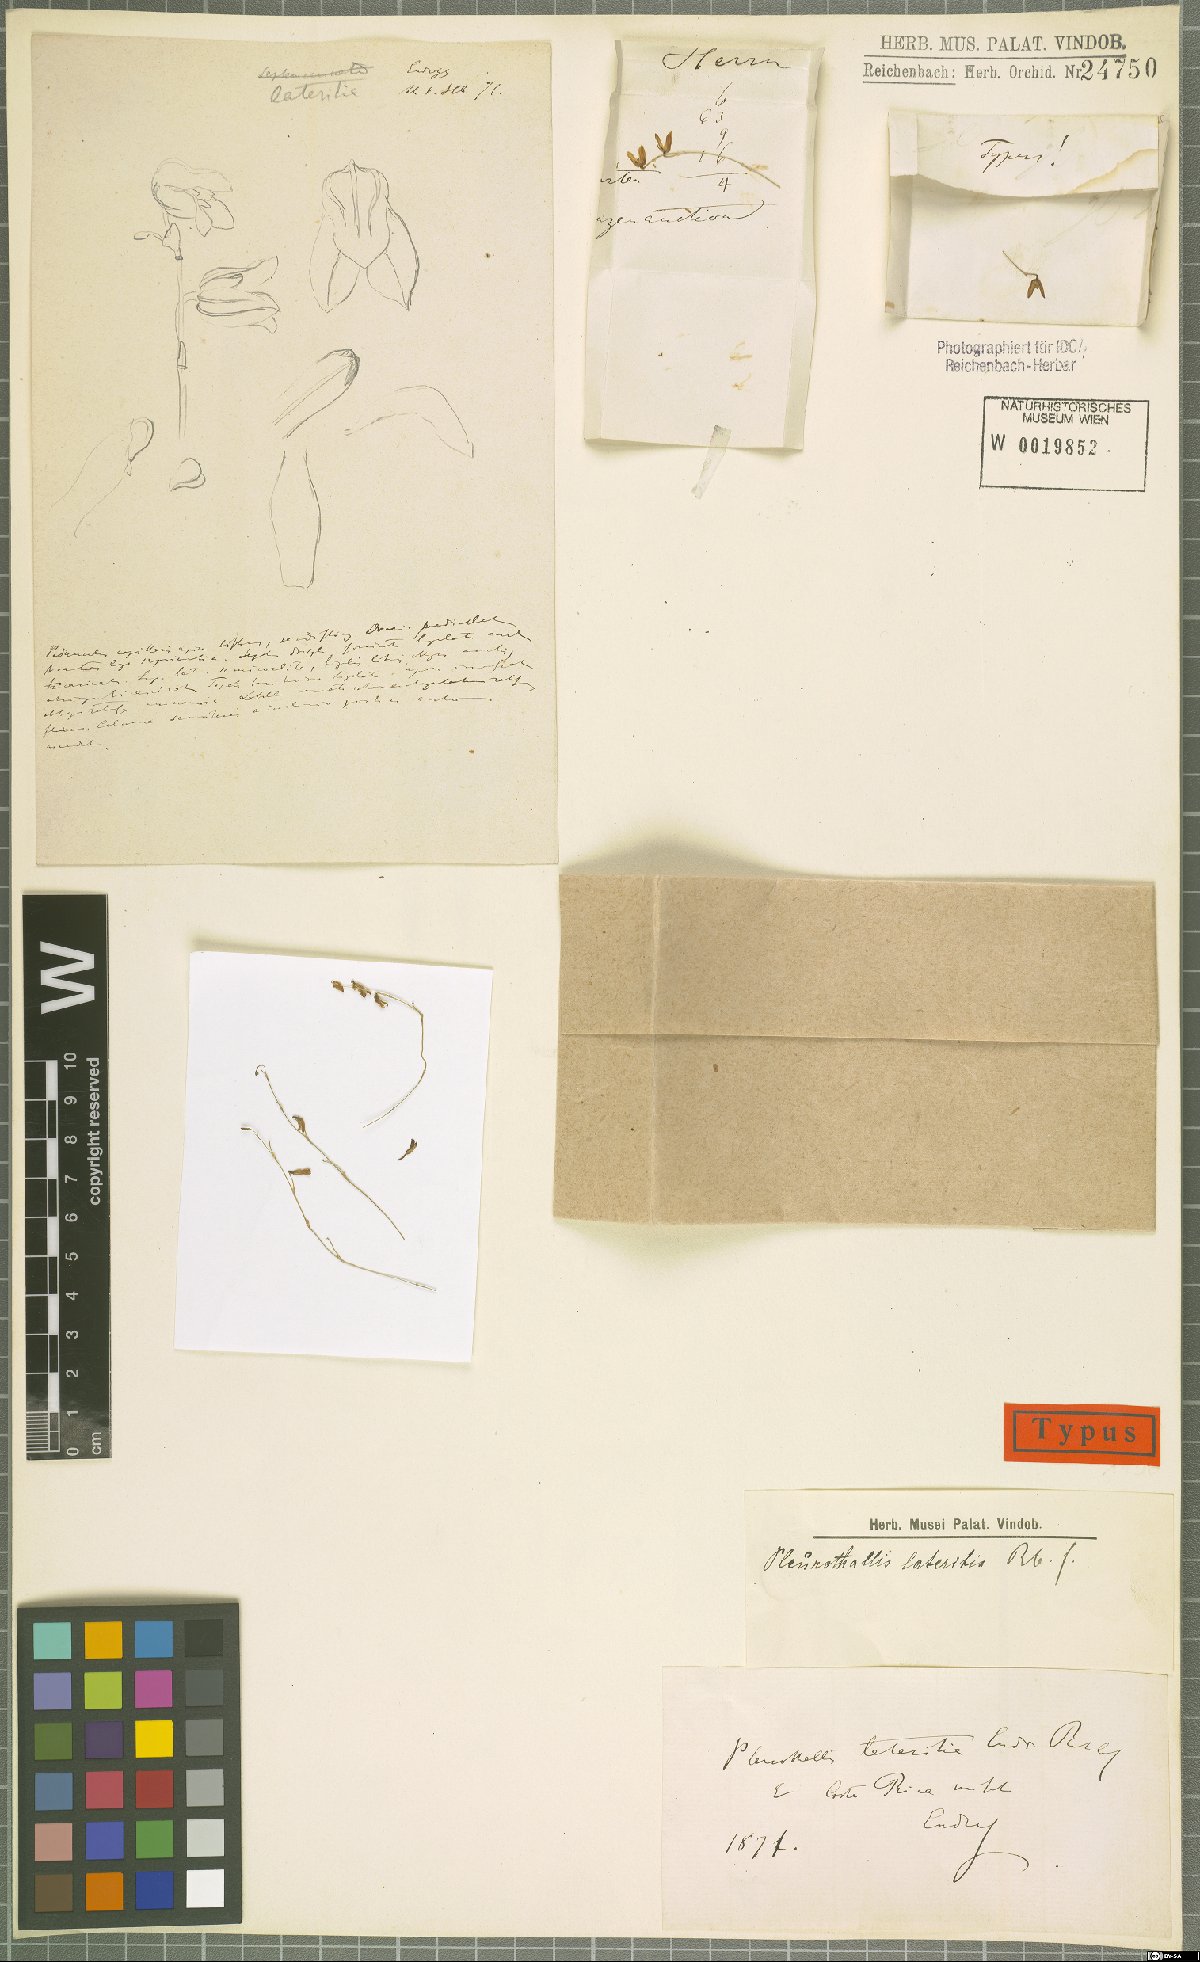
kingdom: Plantae
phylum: Tracheophyta
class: Liliopsida
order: Asparagales
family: Orchidaceae
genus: Specklinia
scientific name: Specklinia lanceola
